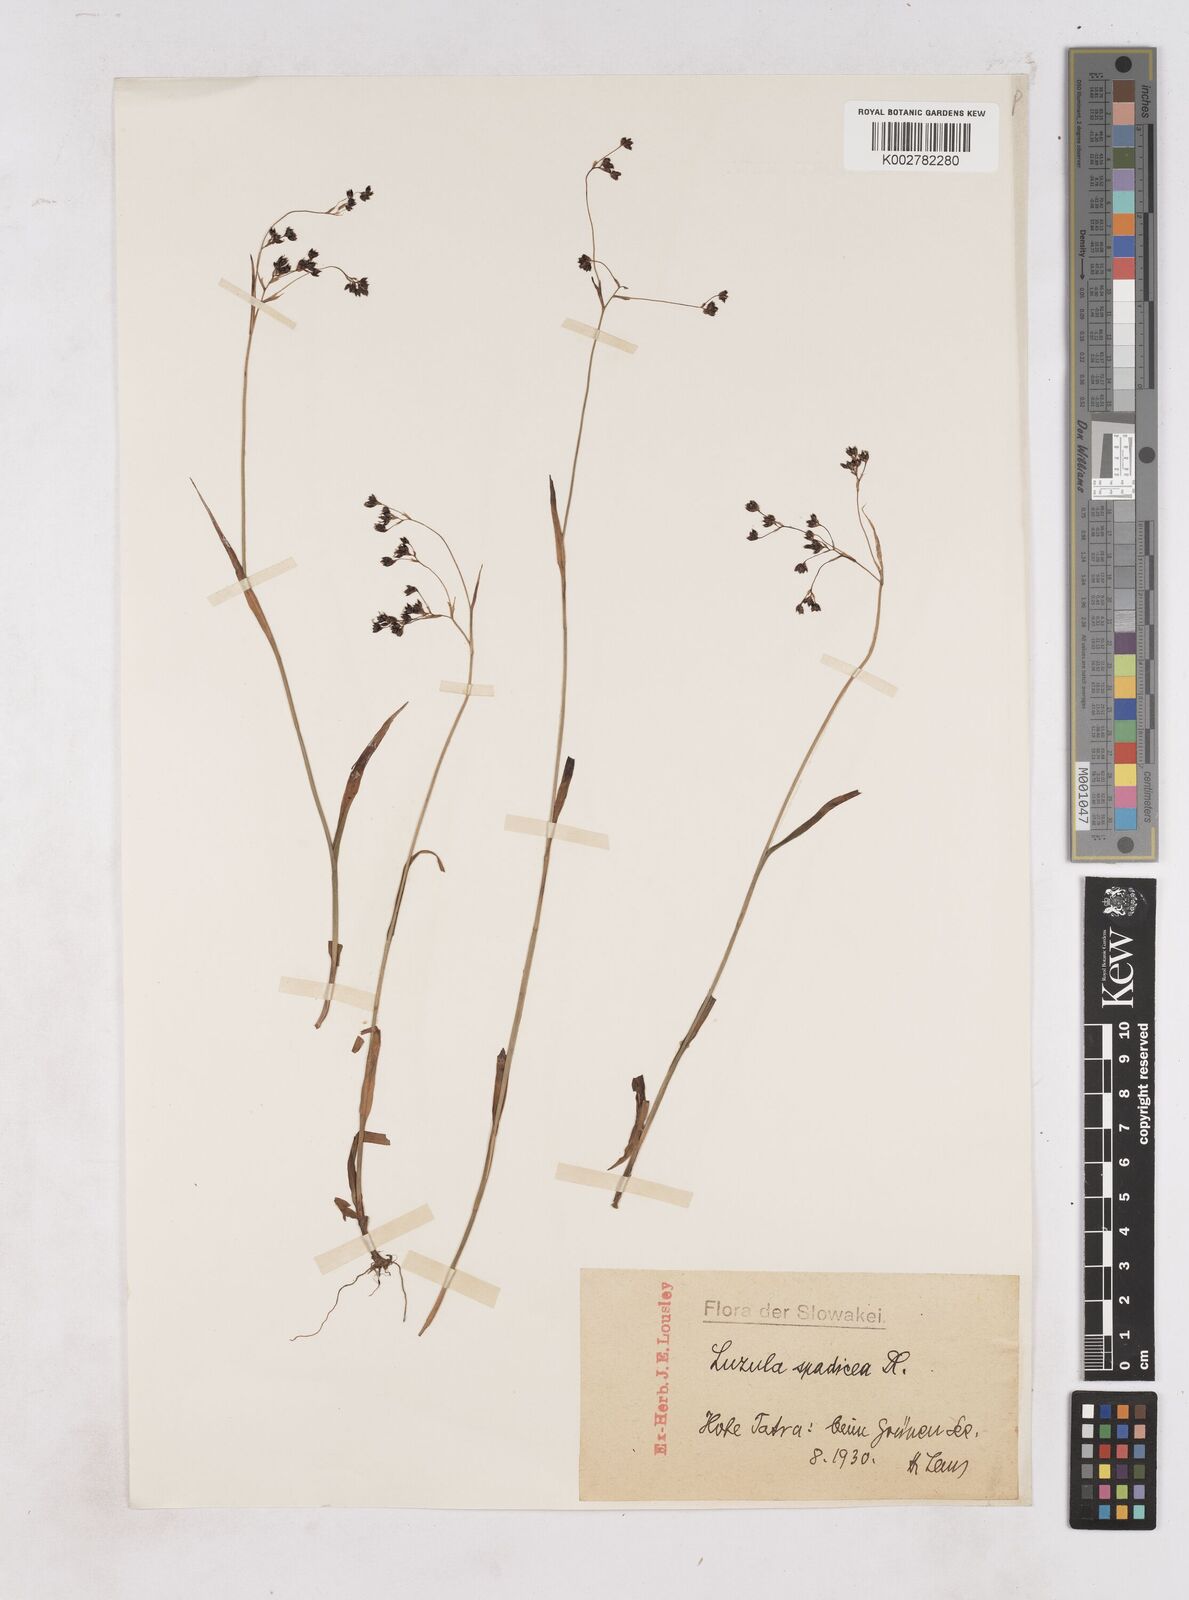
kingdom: Plantae
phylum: Tracheophyta
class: Liliopsida
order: Poales
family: Juncaceae
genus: Luzula
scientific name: Luzula alpinopilosa
